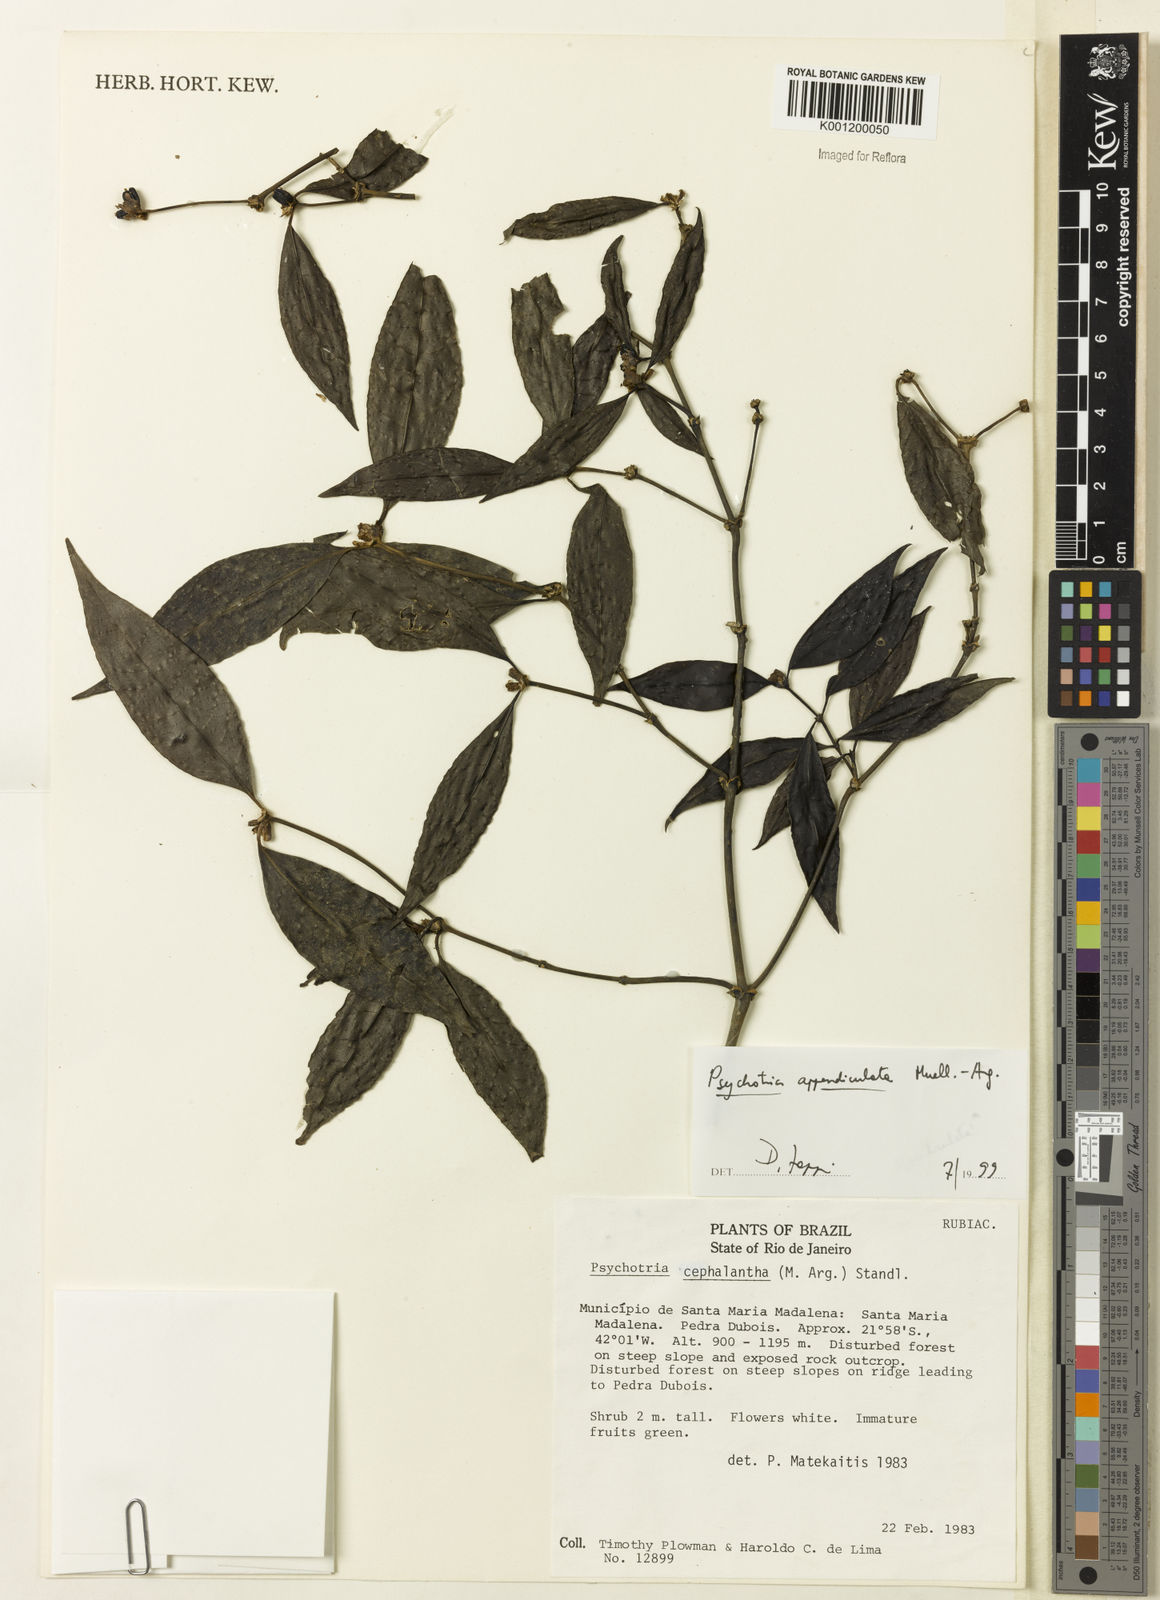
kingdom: Plantae
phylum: Tracheophyta
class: Magnoliopsida
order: Gentianales
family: Rubiaceae
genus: Psychotria
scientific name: Psychotria
